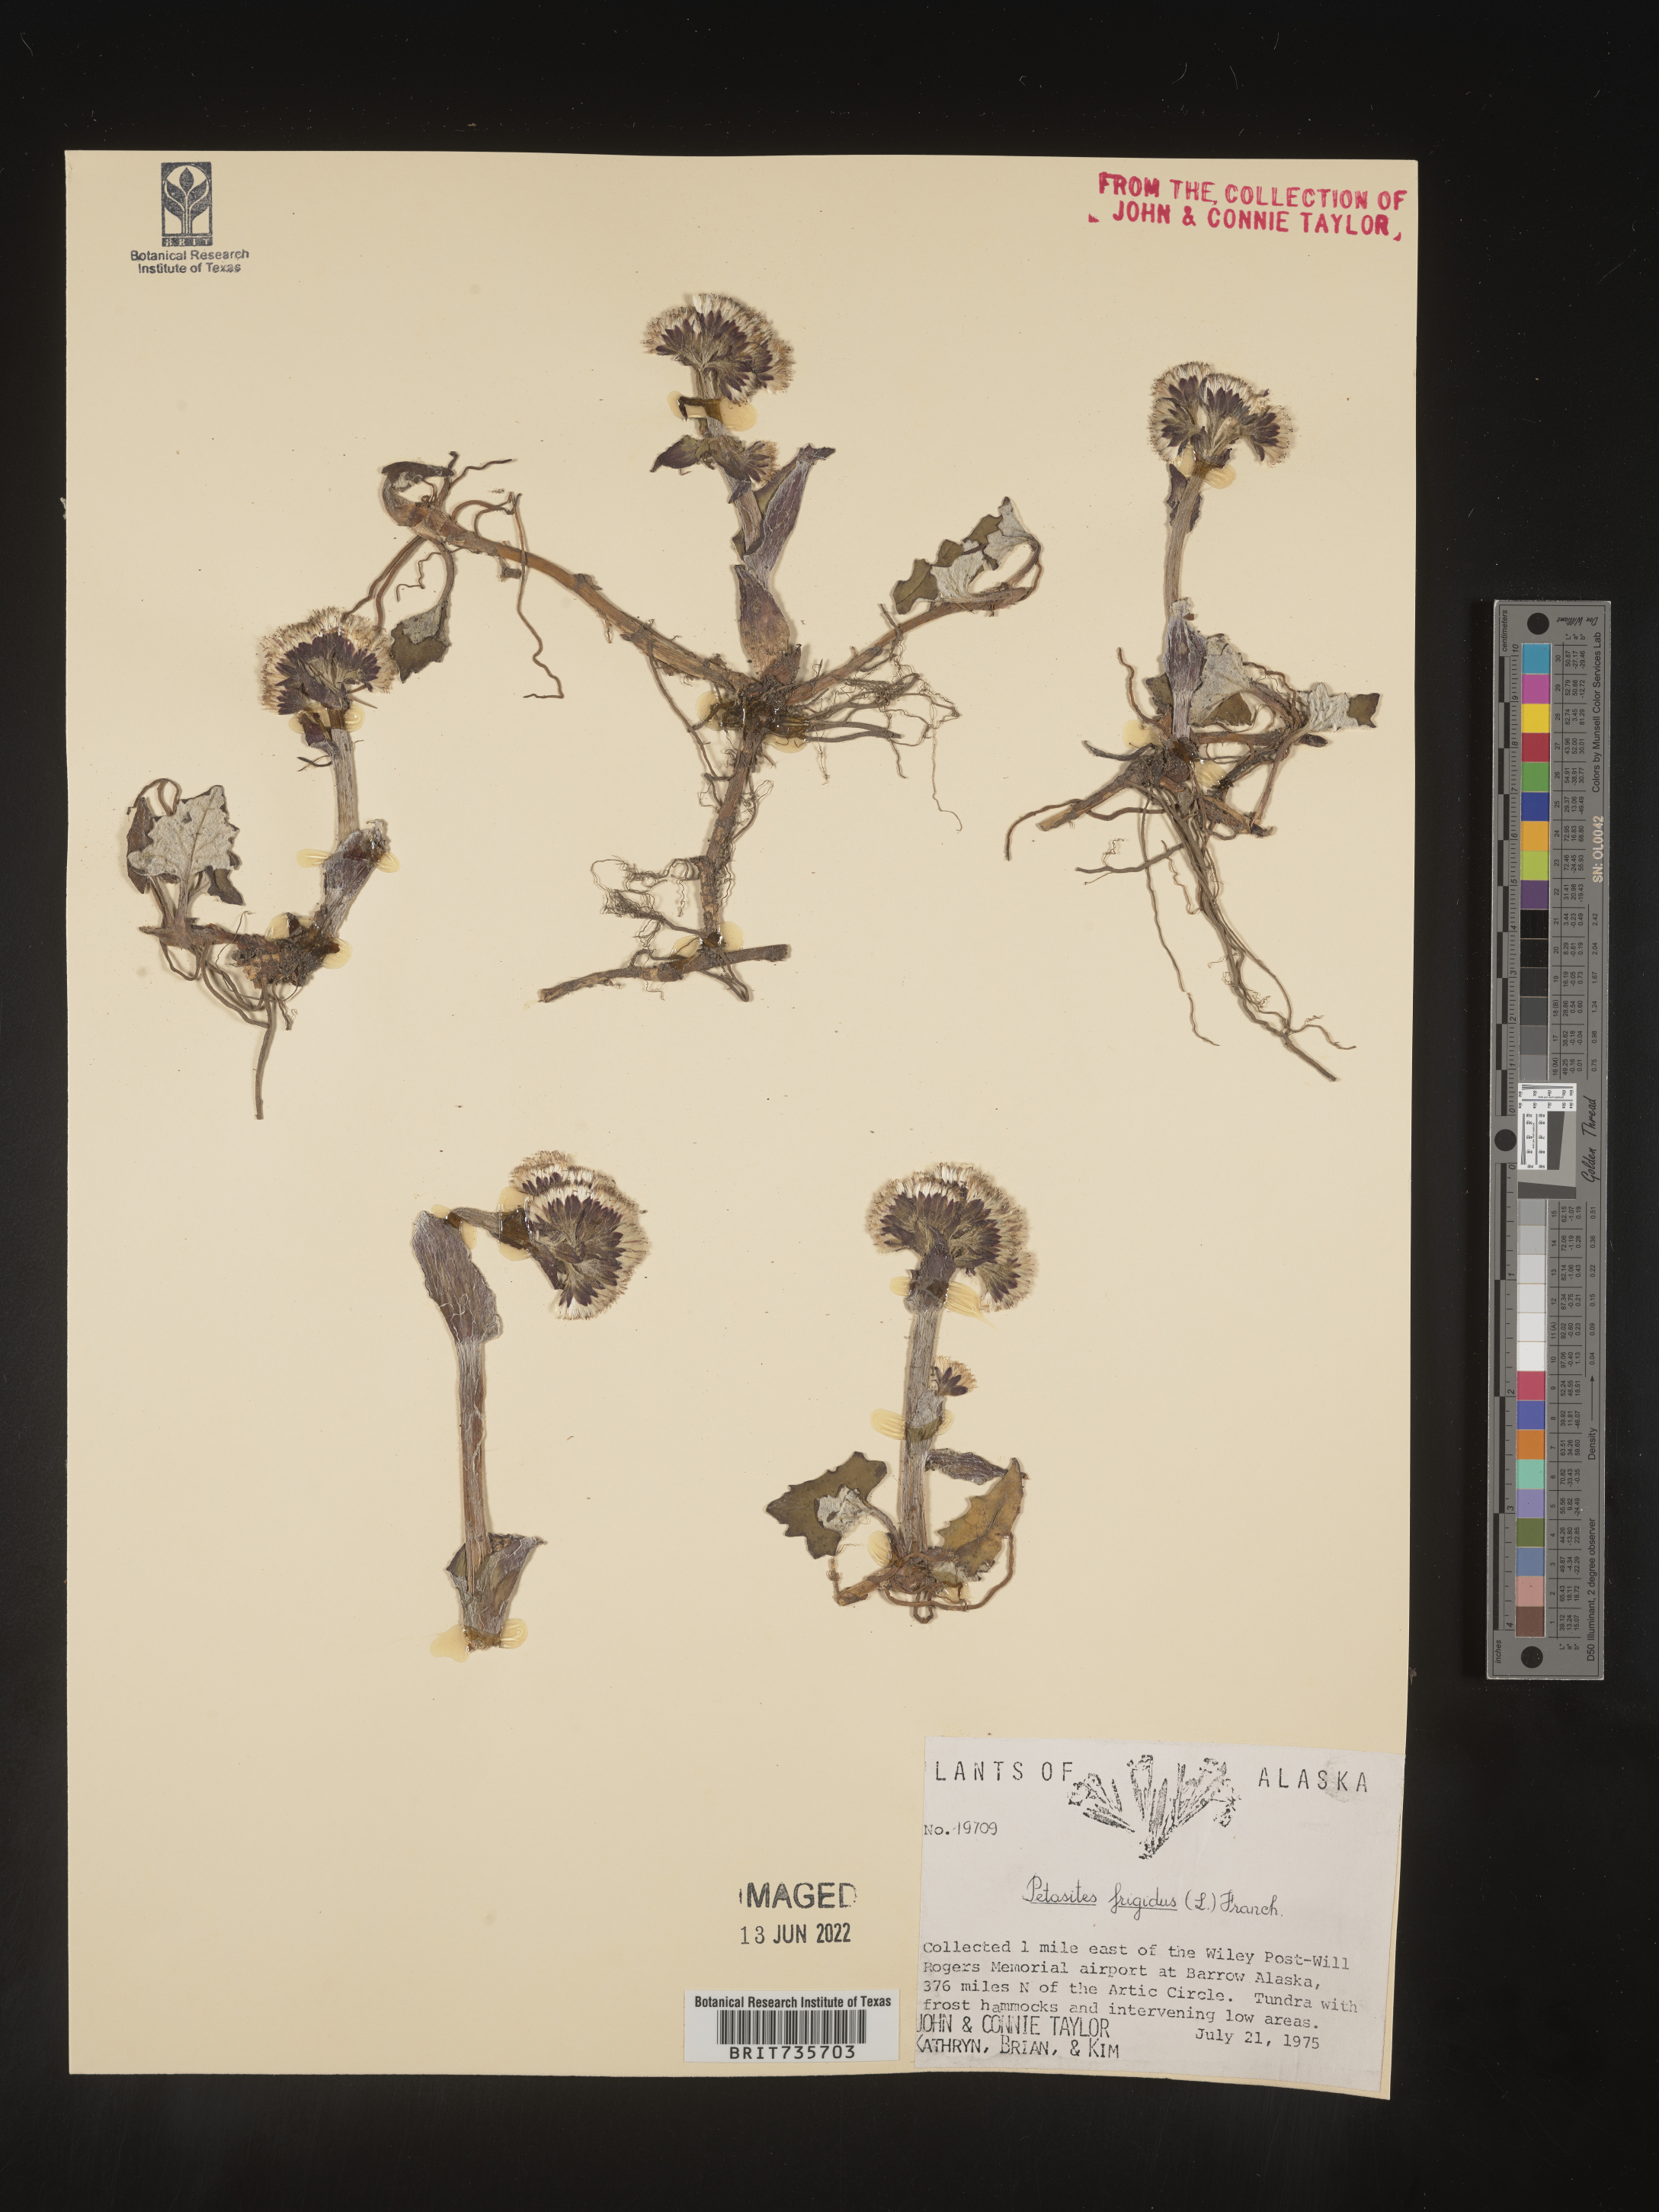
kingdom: Plantae
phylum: Tracheophyta
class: Magnoliopsida
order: Asterales
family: Asteraceae
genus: Petasites
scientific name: Petasites frigidus
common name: Arctic butterbur
